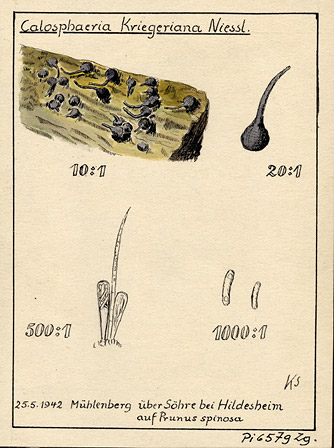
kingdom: Plantae
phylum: Tracheophyta
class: Magnoliopsida
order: Rosales
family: Rosaceae
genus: Prunus
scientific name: Prunus spinosa
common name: Blackthorn
